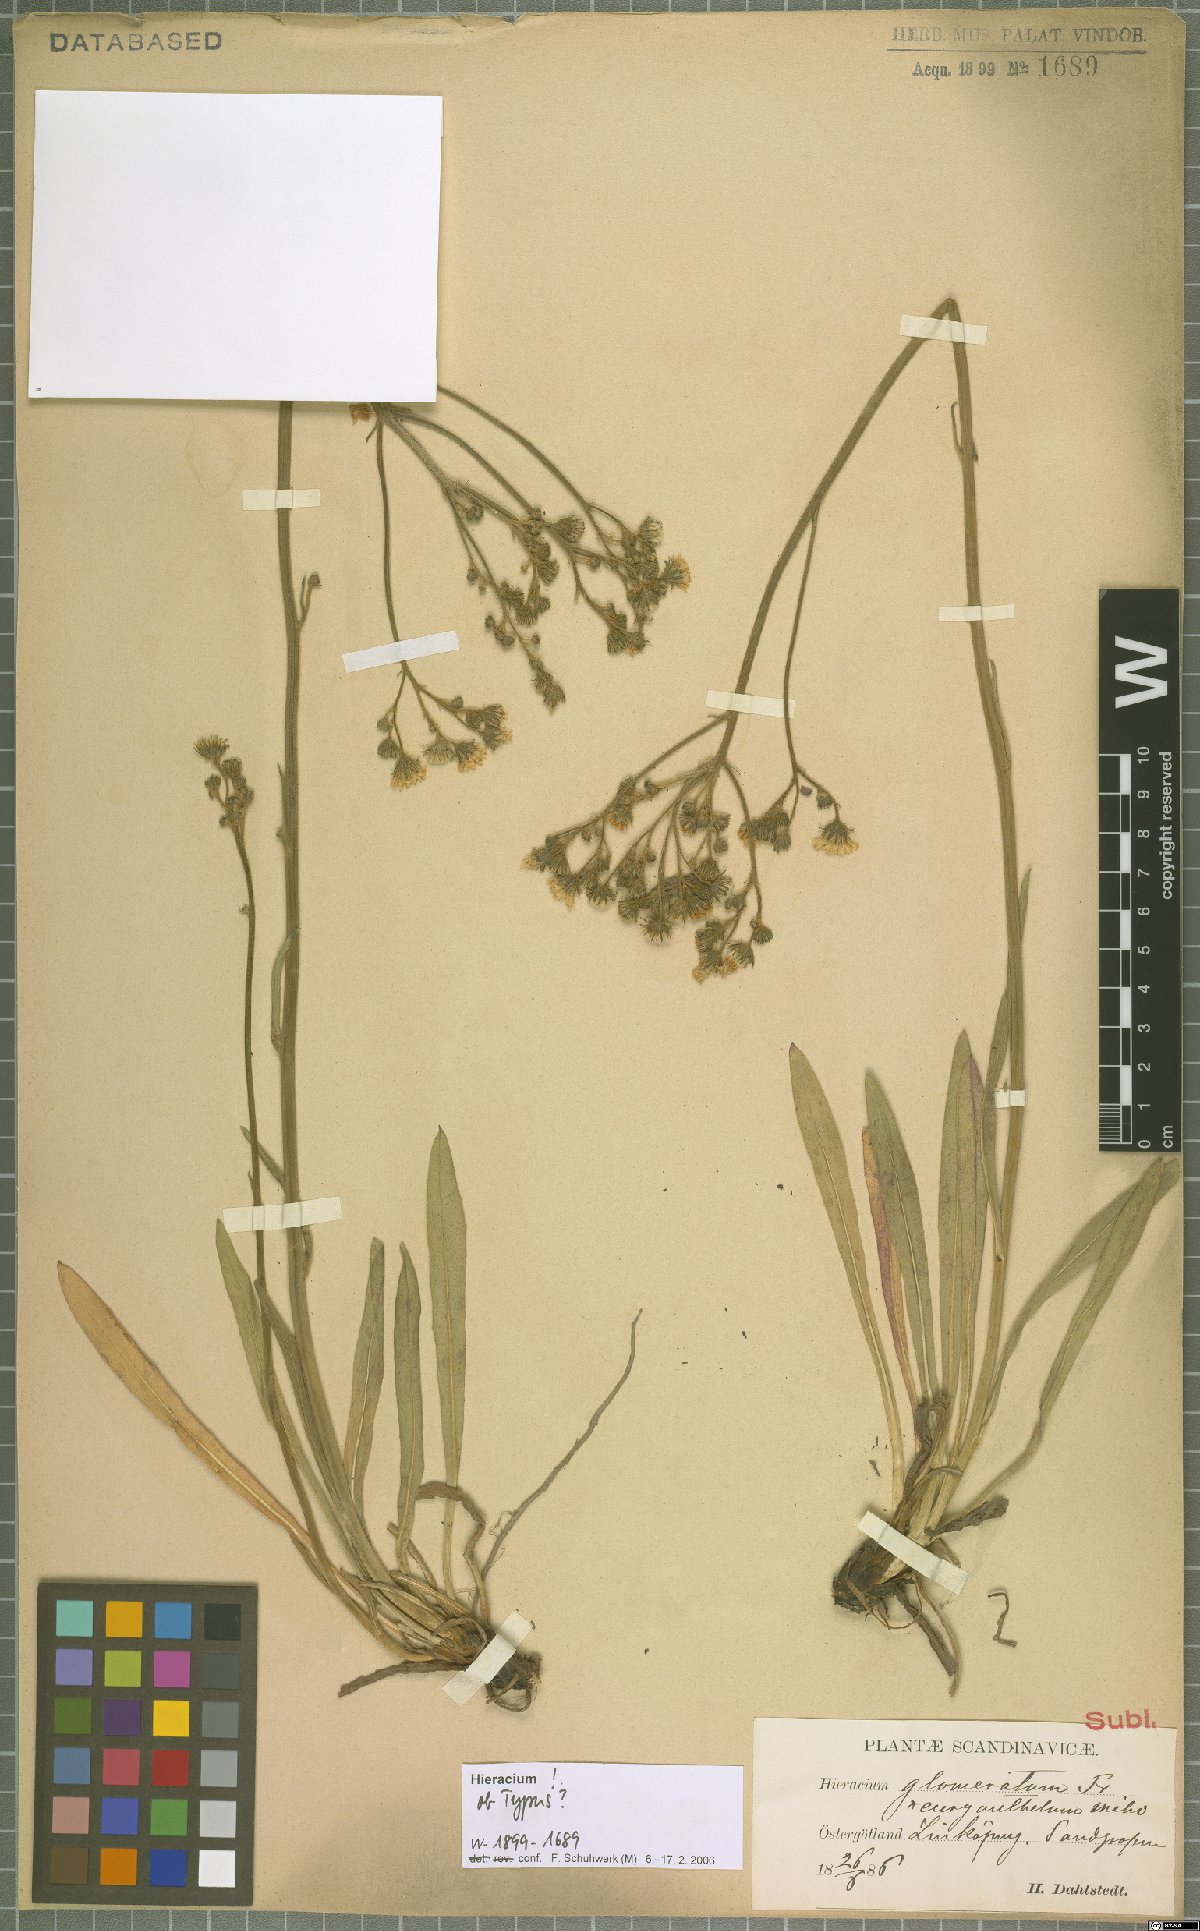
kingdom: Plantae
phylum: Tracheophyta
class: Magnoliopsida
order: Asterales
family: Asteraceae
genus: Pilosella
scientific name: Pilosella cymosa
